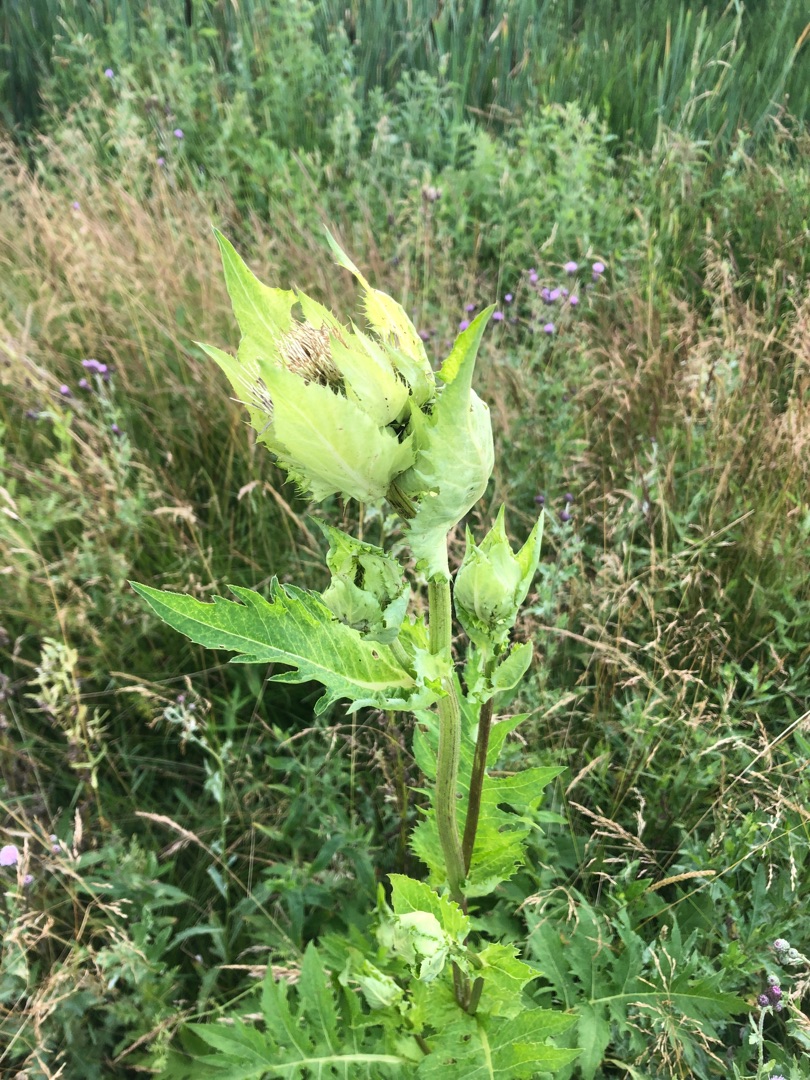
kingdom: Plantae
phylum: Tracheophyta
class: Magnoliopsida
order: Asterales
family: Asteraceae
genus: Cirsium
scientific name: Cirsium oleraceum
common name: Kål-tidsel
